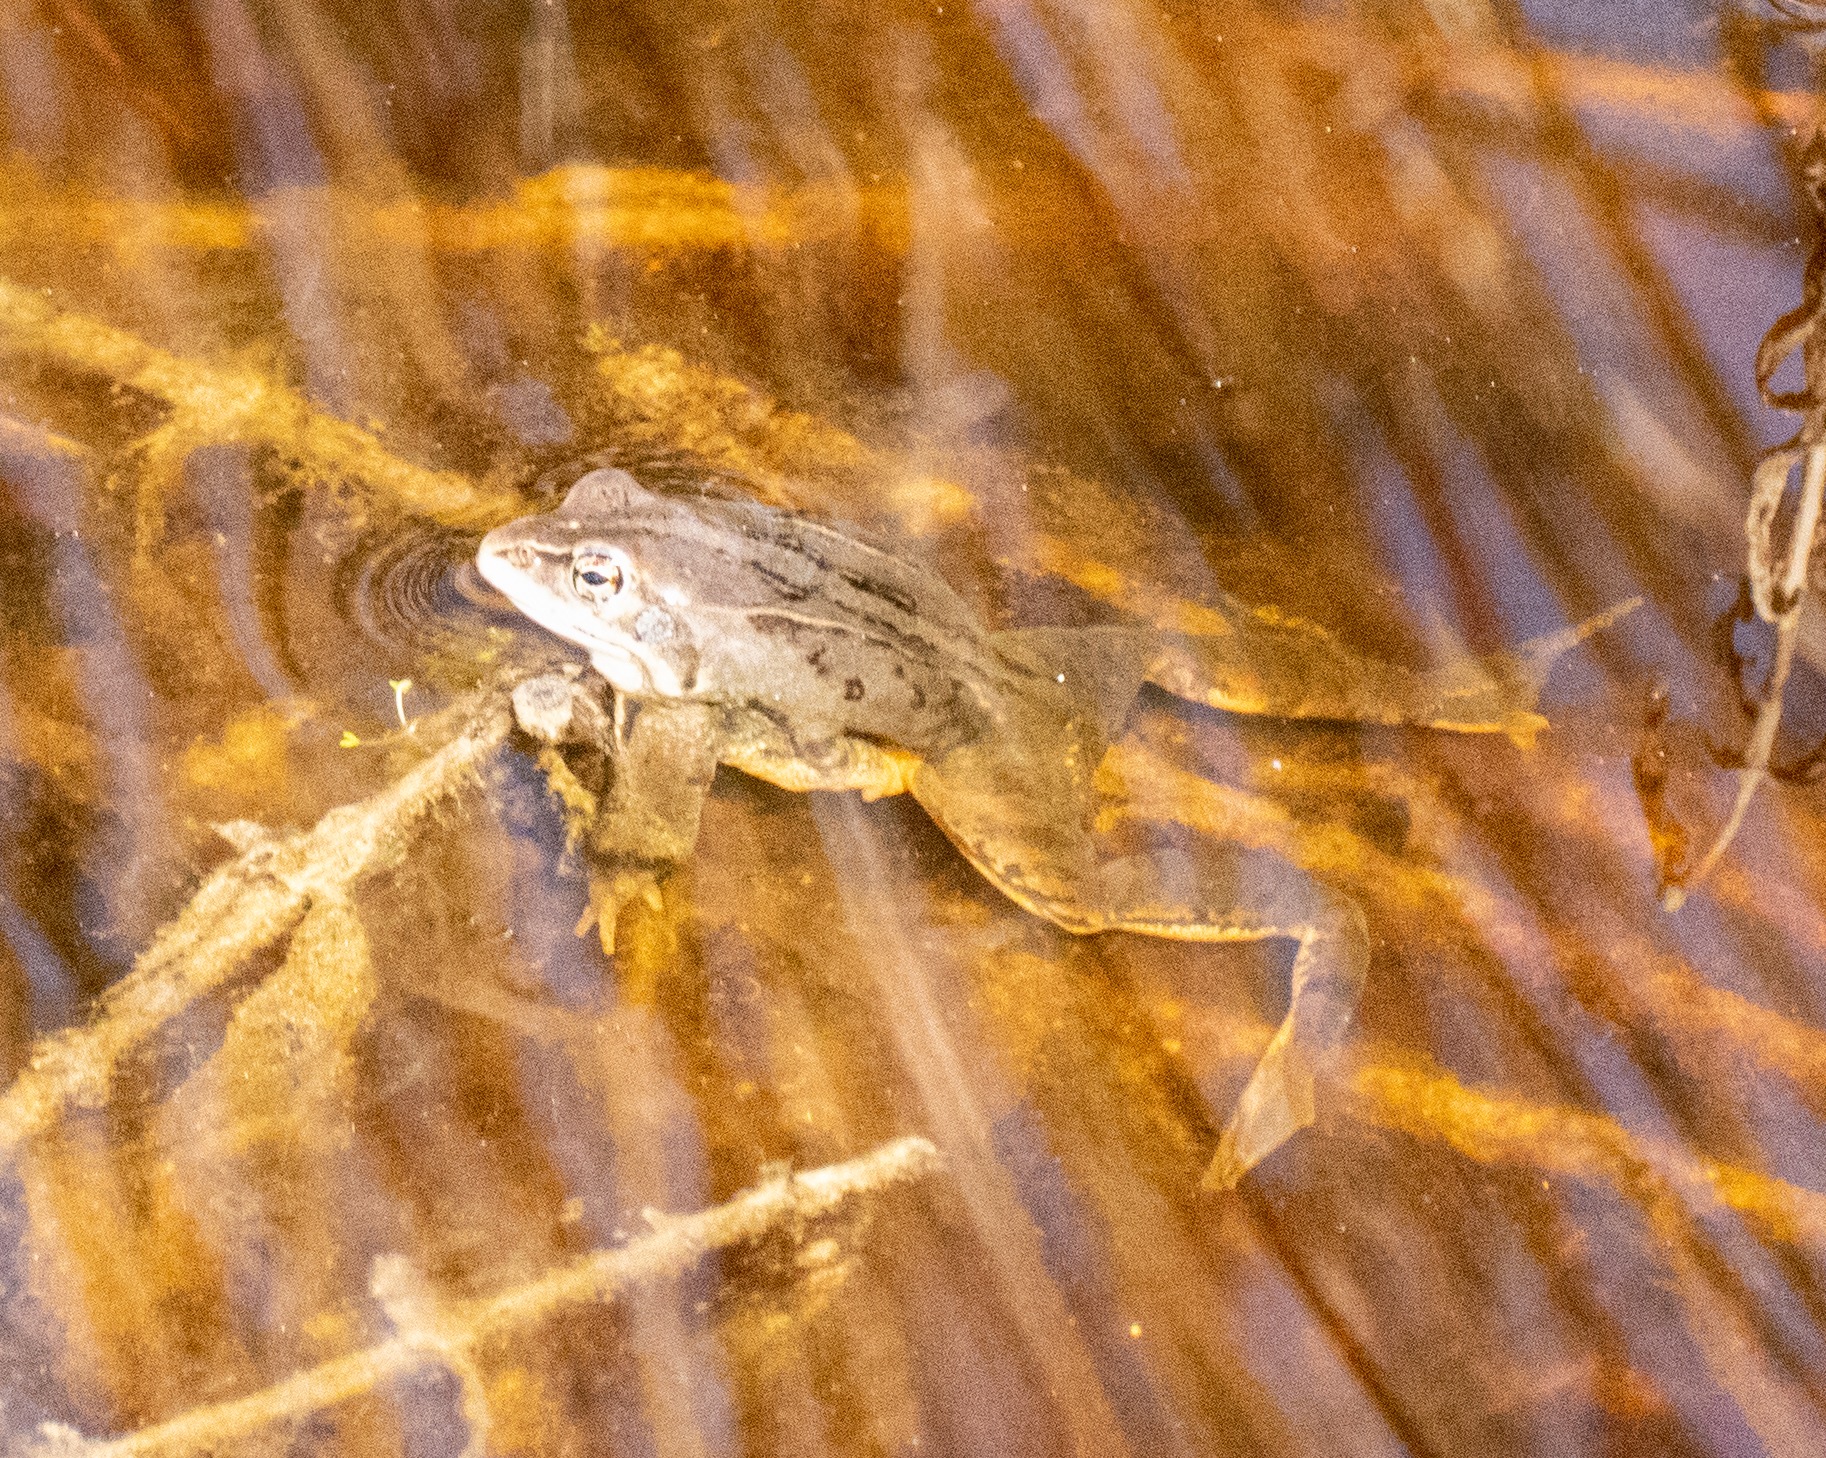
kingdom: Animalia
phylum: Chordata
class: Amphibia
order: Anura
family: Ranidae
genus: Rana
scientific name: Rana arvalis
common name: Spidssnudet frø
